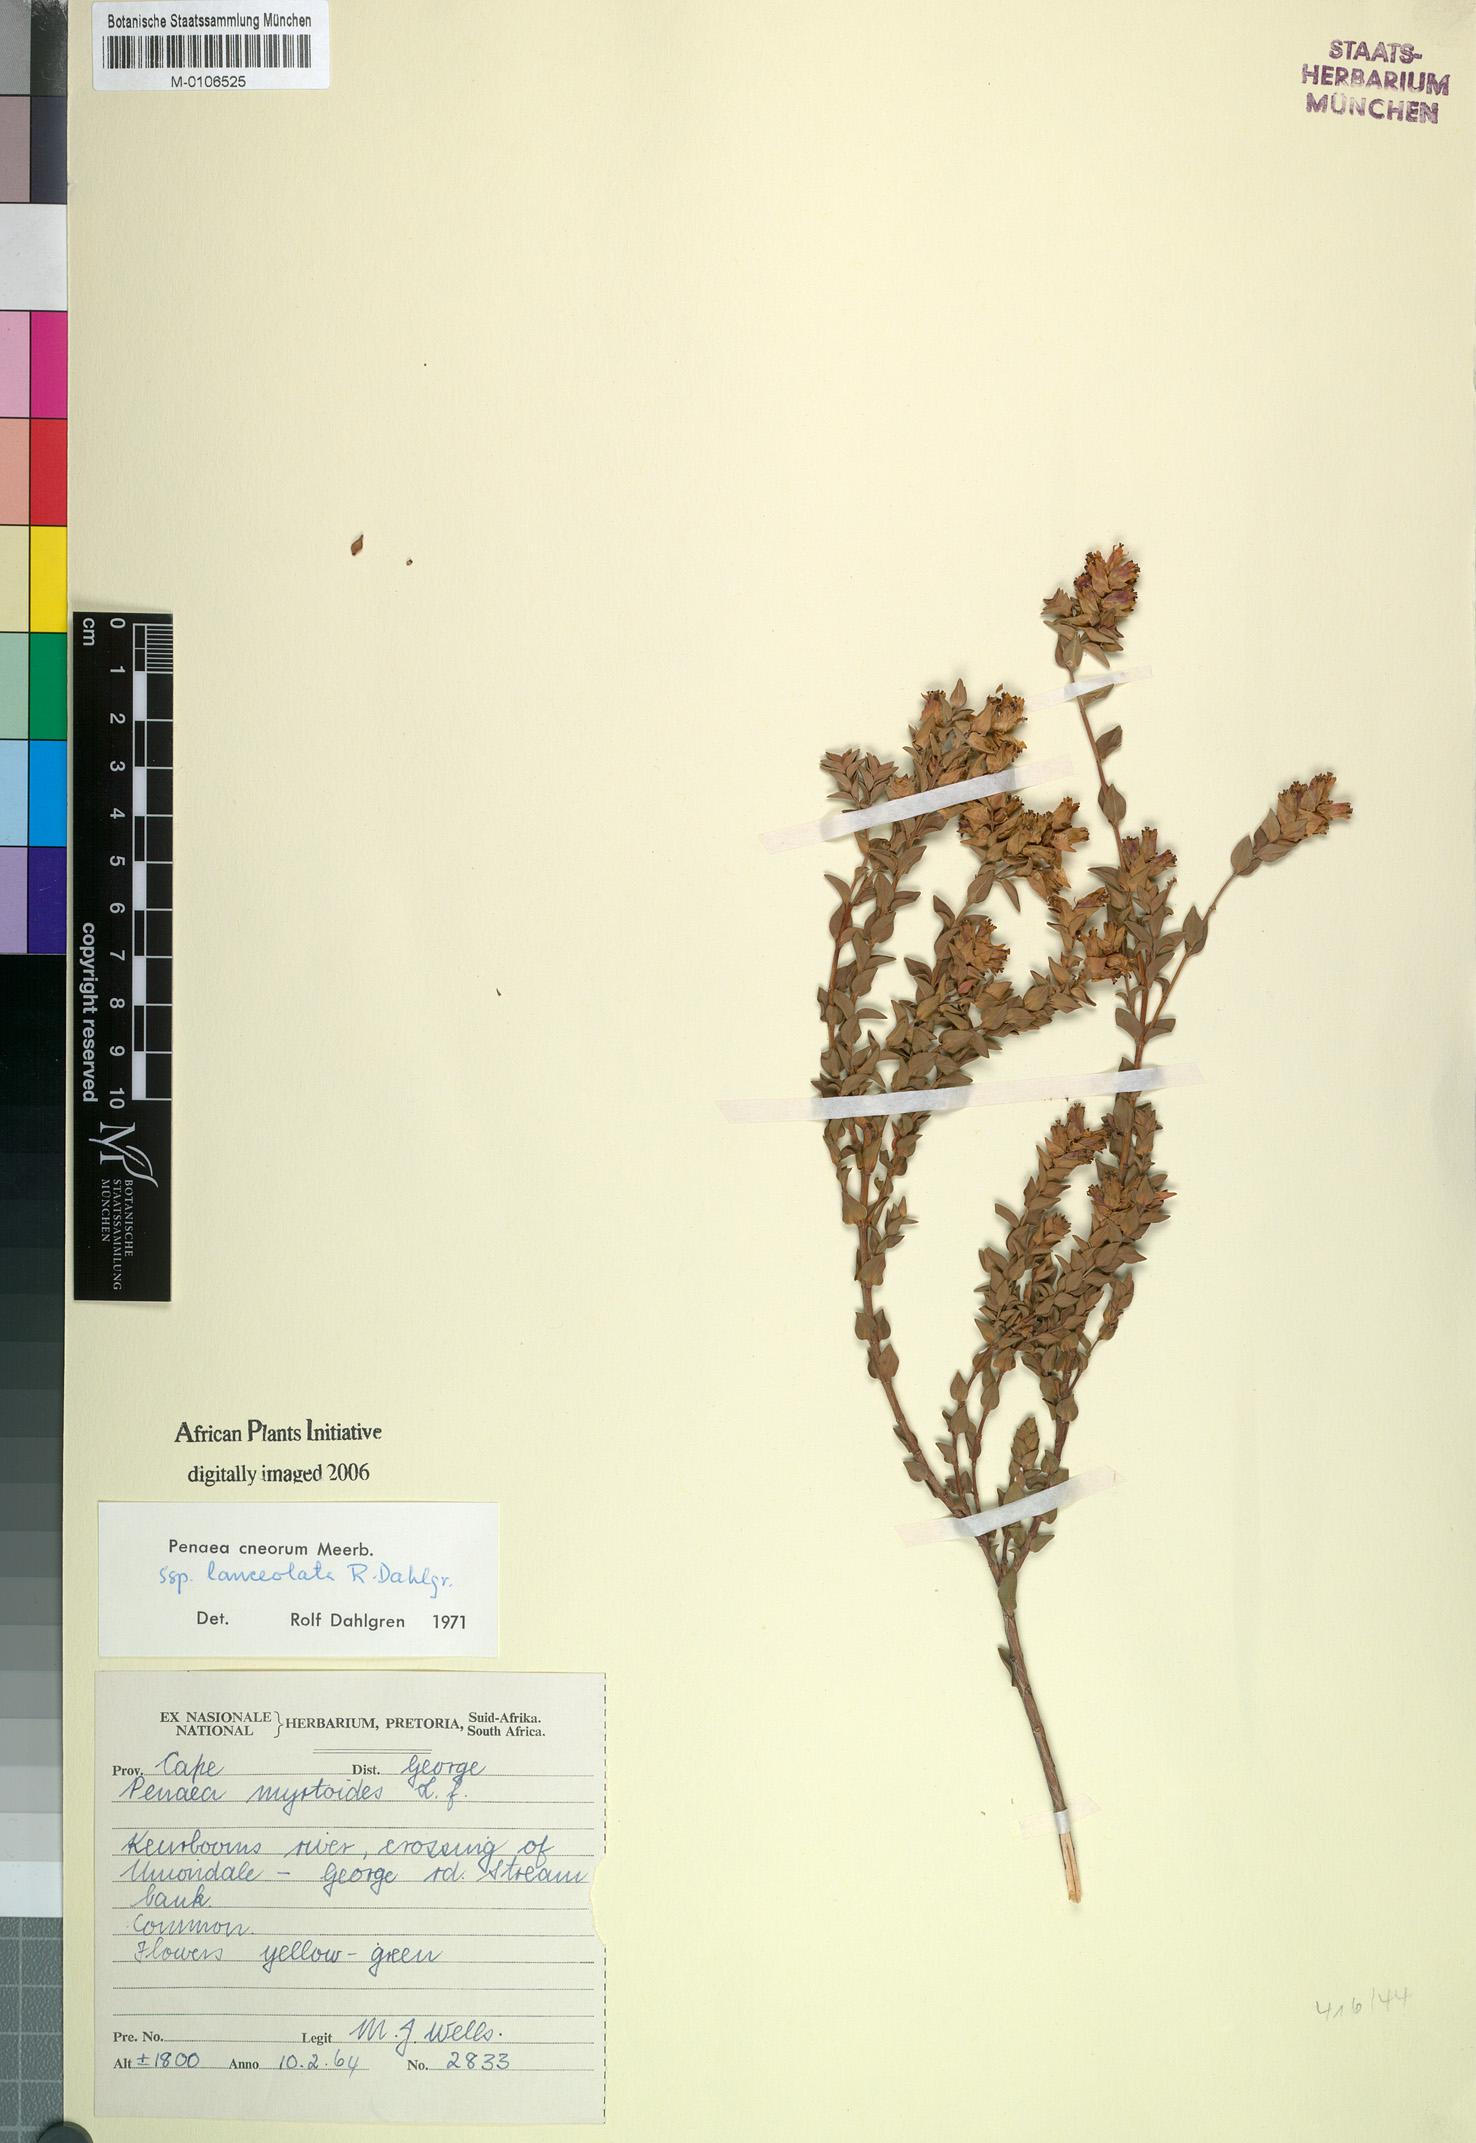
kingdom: Plantae
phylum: Tracheophyta
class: Magnoliopsida
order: Myrtales
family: Penaeaceae
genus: Penaea
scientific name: Penaea cneorum
